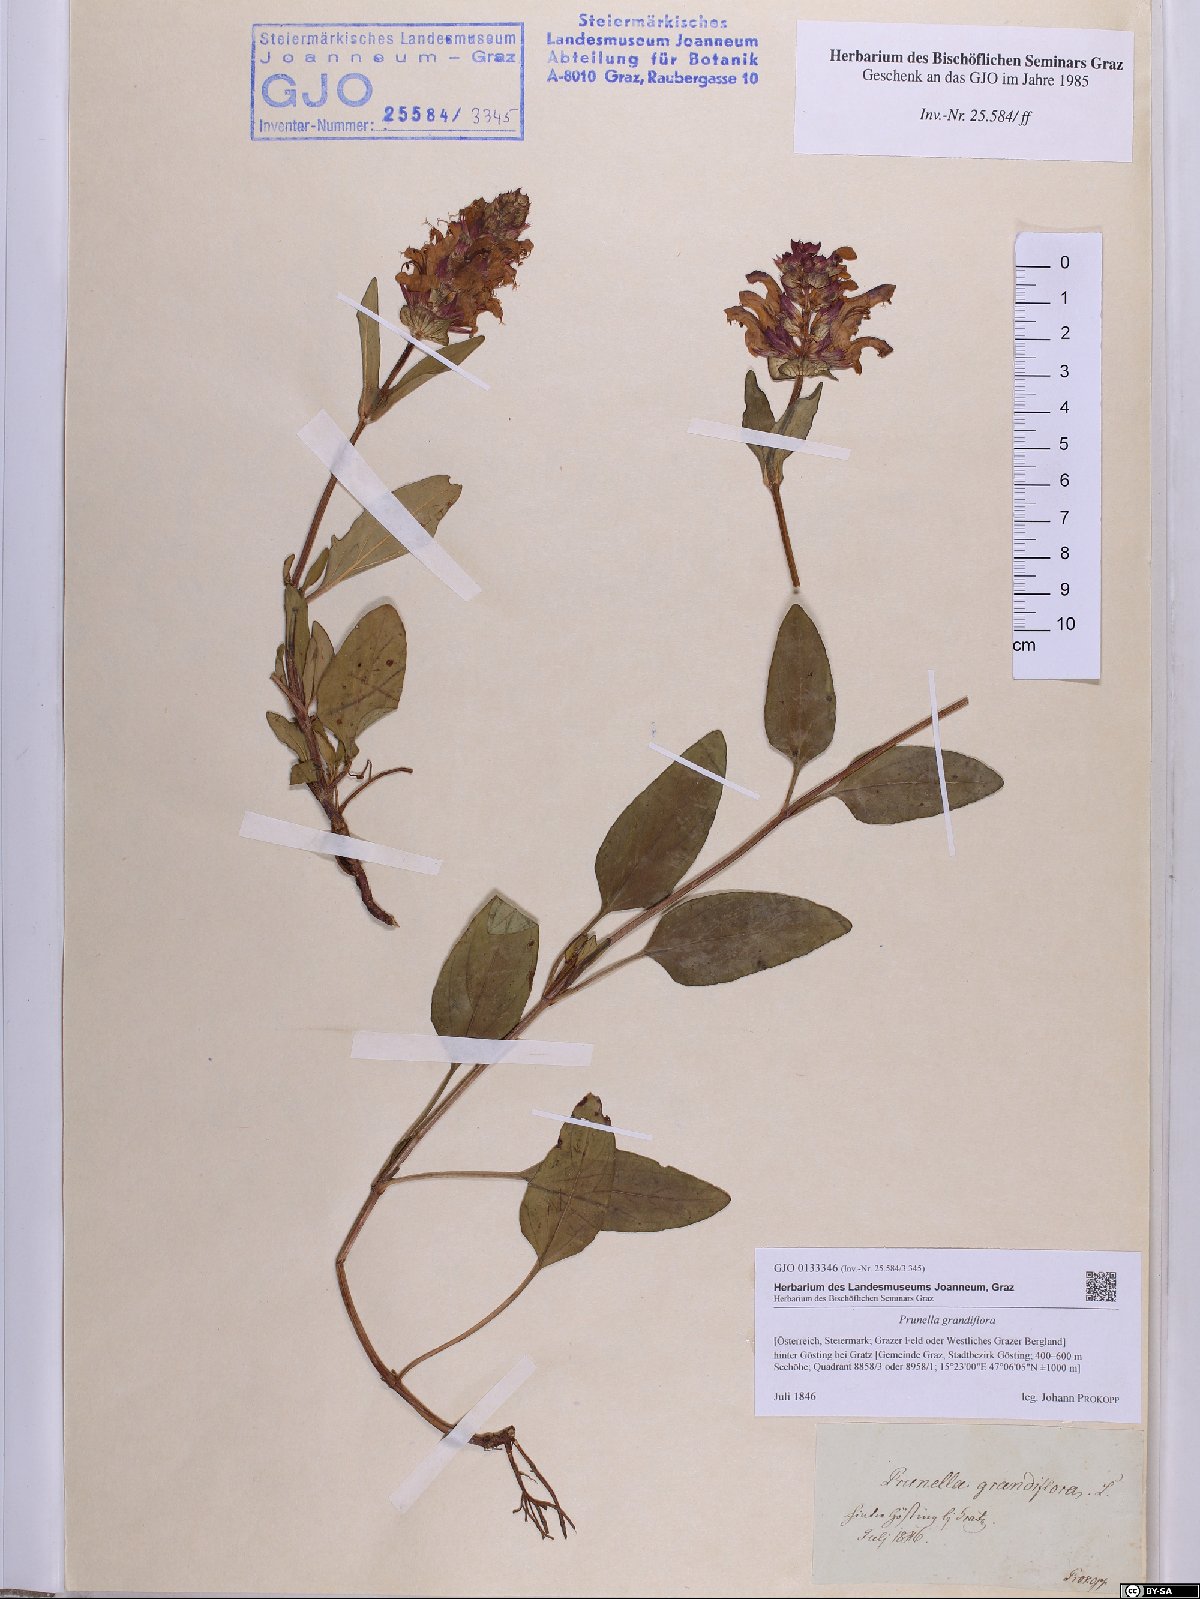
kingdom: Plantae
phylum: Tracheophyta
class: Magnoliopsida
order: Lamiales
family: Lamiaceae
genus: Prunella
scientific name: Prunella grandiflora
